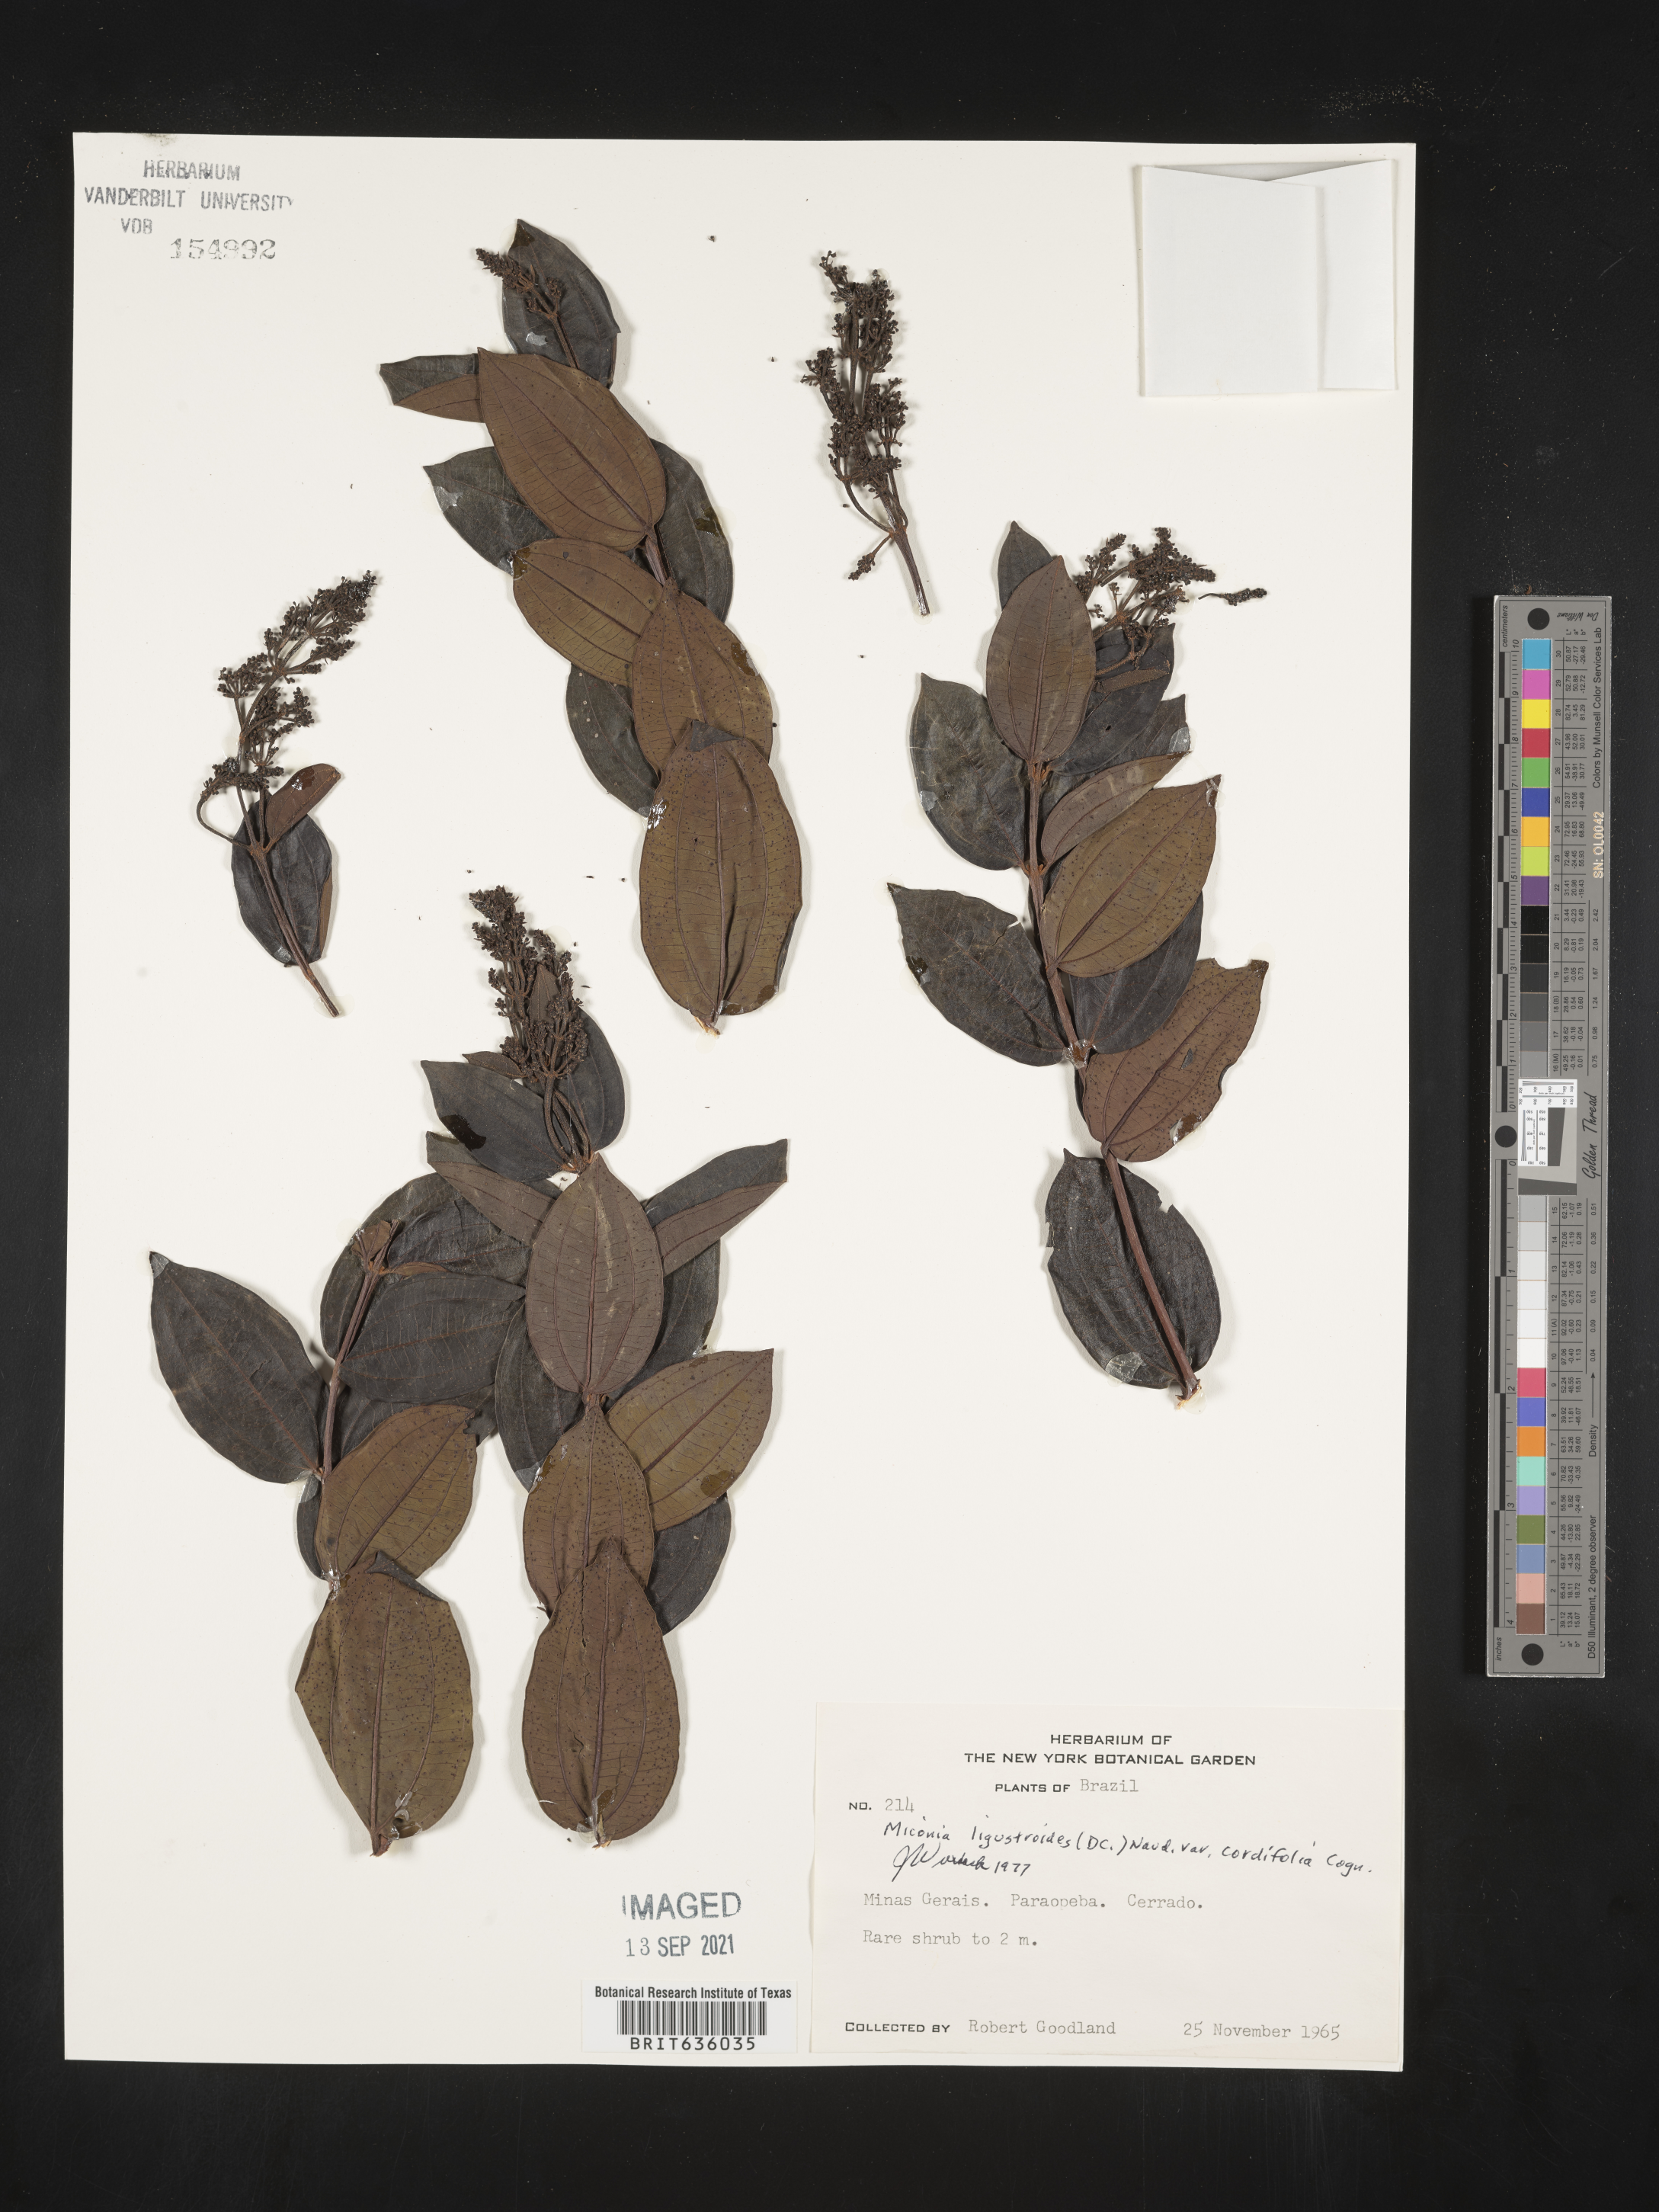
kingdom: Plantae
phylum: Tracheophyta
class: Magnoliopsida
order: Myrtales
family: Melastomataceae
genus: Miconia
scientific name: Miconia
